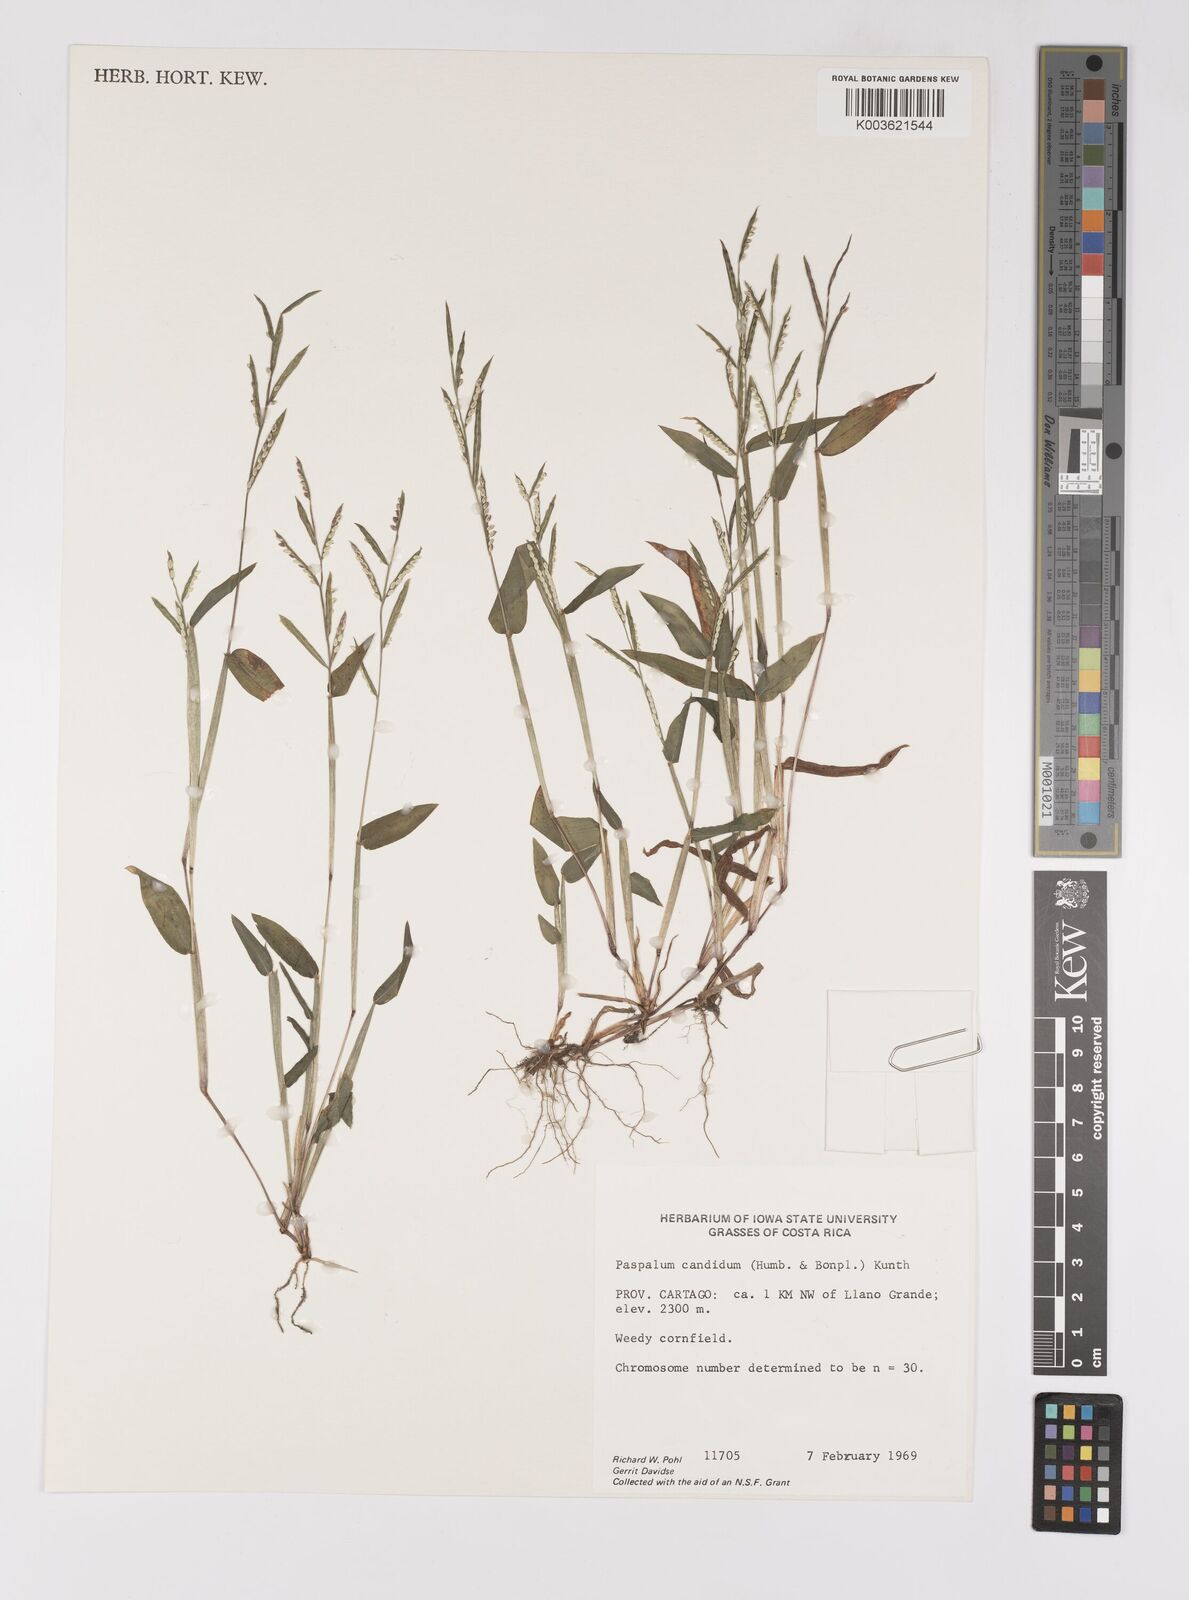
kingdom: Plantae
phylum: Tracheophyta
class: Liliopsida
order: Poales
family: Poaceae
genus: Paspalum
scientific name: Paspalum candidum
